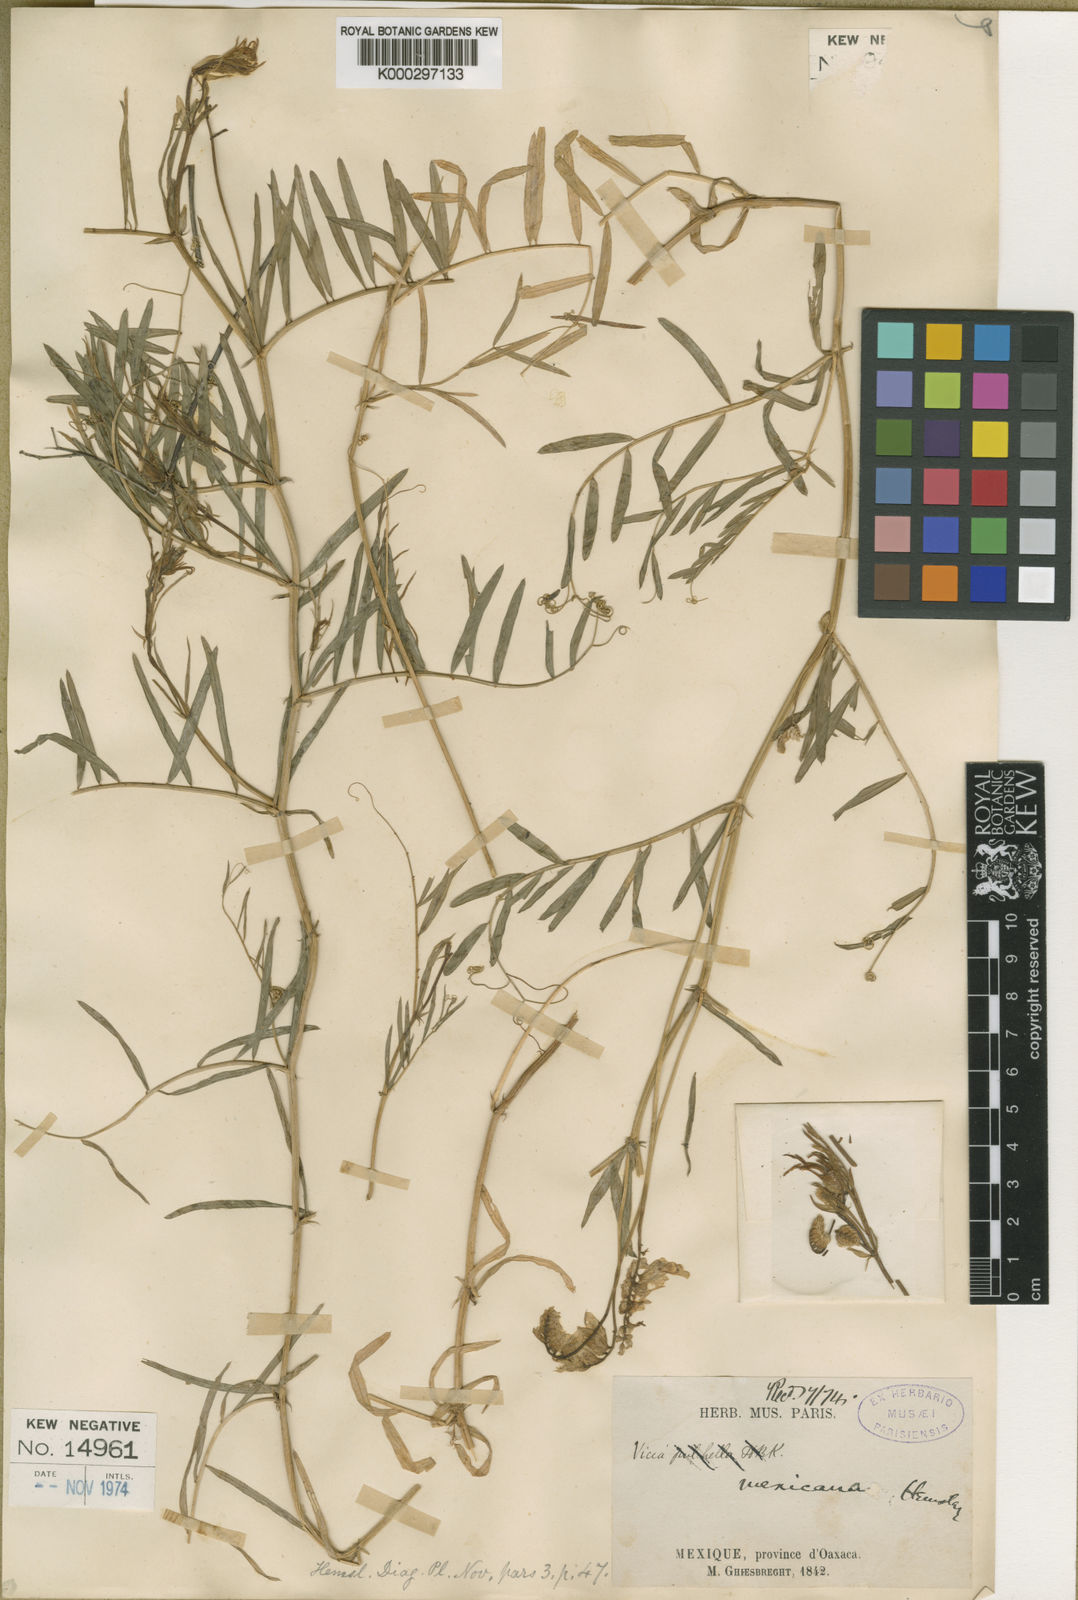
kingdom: Plantae
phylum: Tracheophyta
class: Magnoliopsida
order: Fabales
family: Fabaceae
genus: Vicia
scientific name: Vicia sessei
